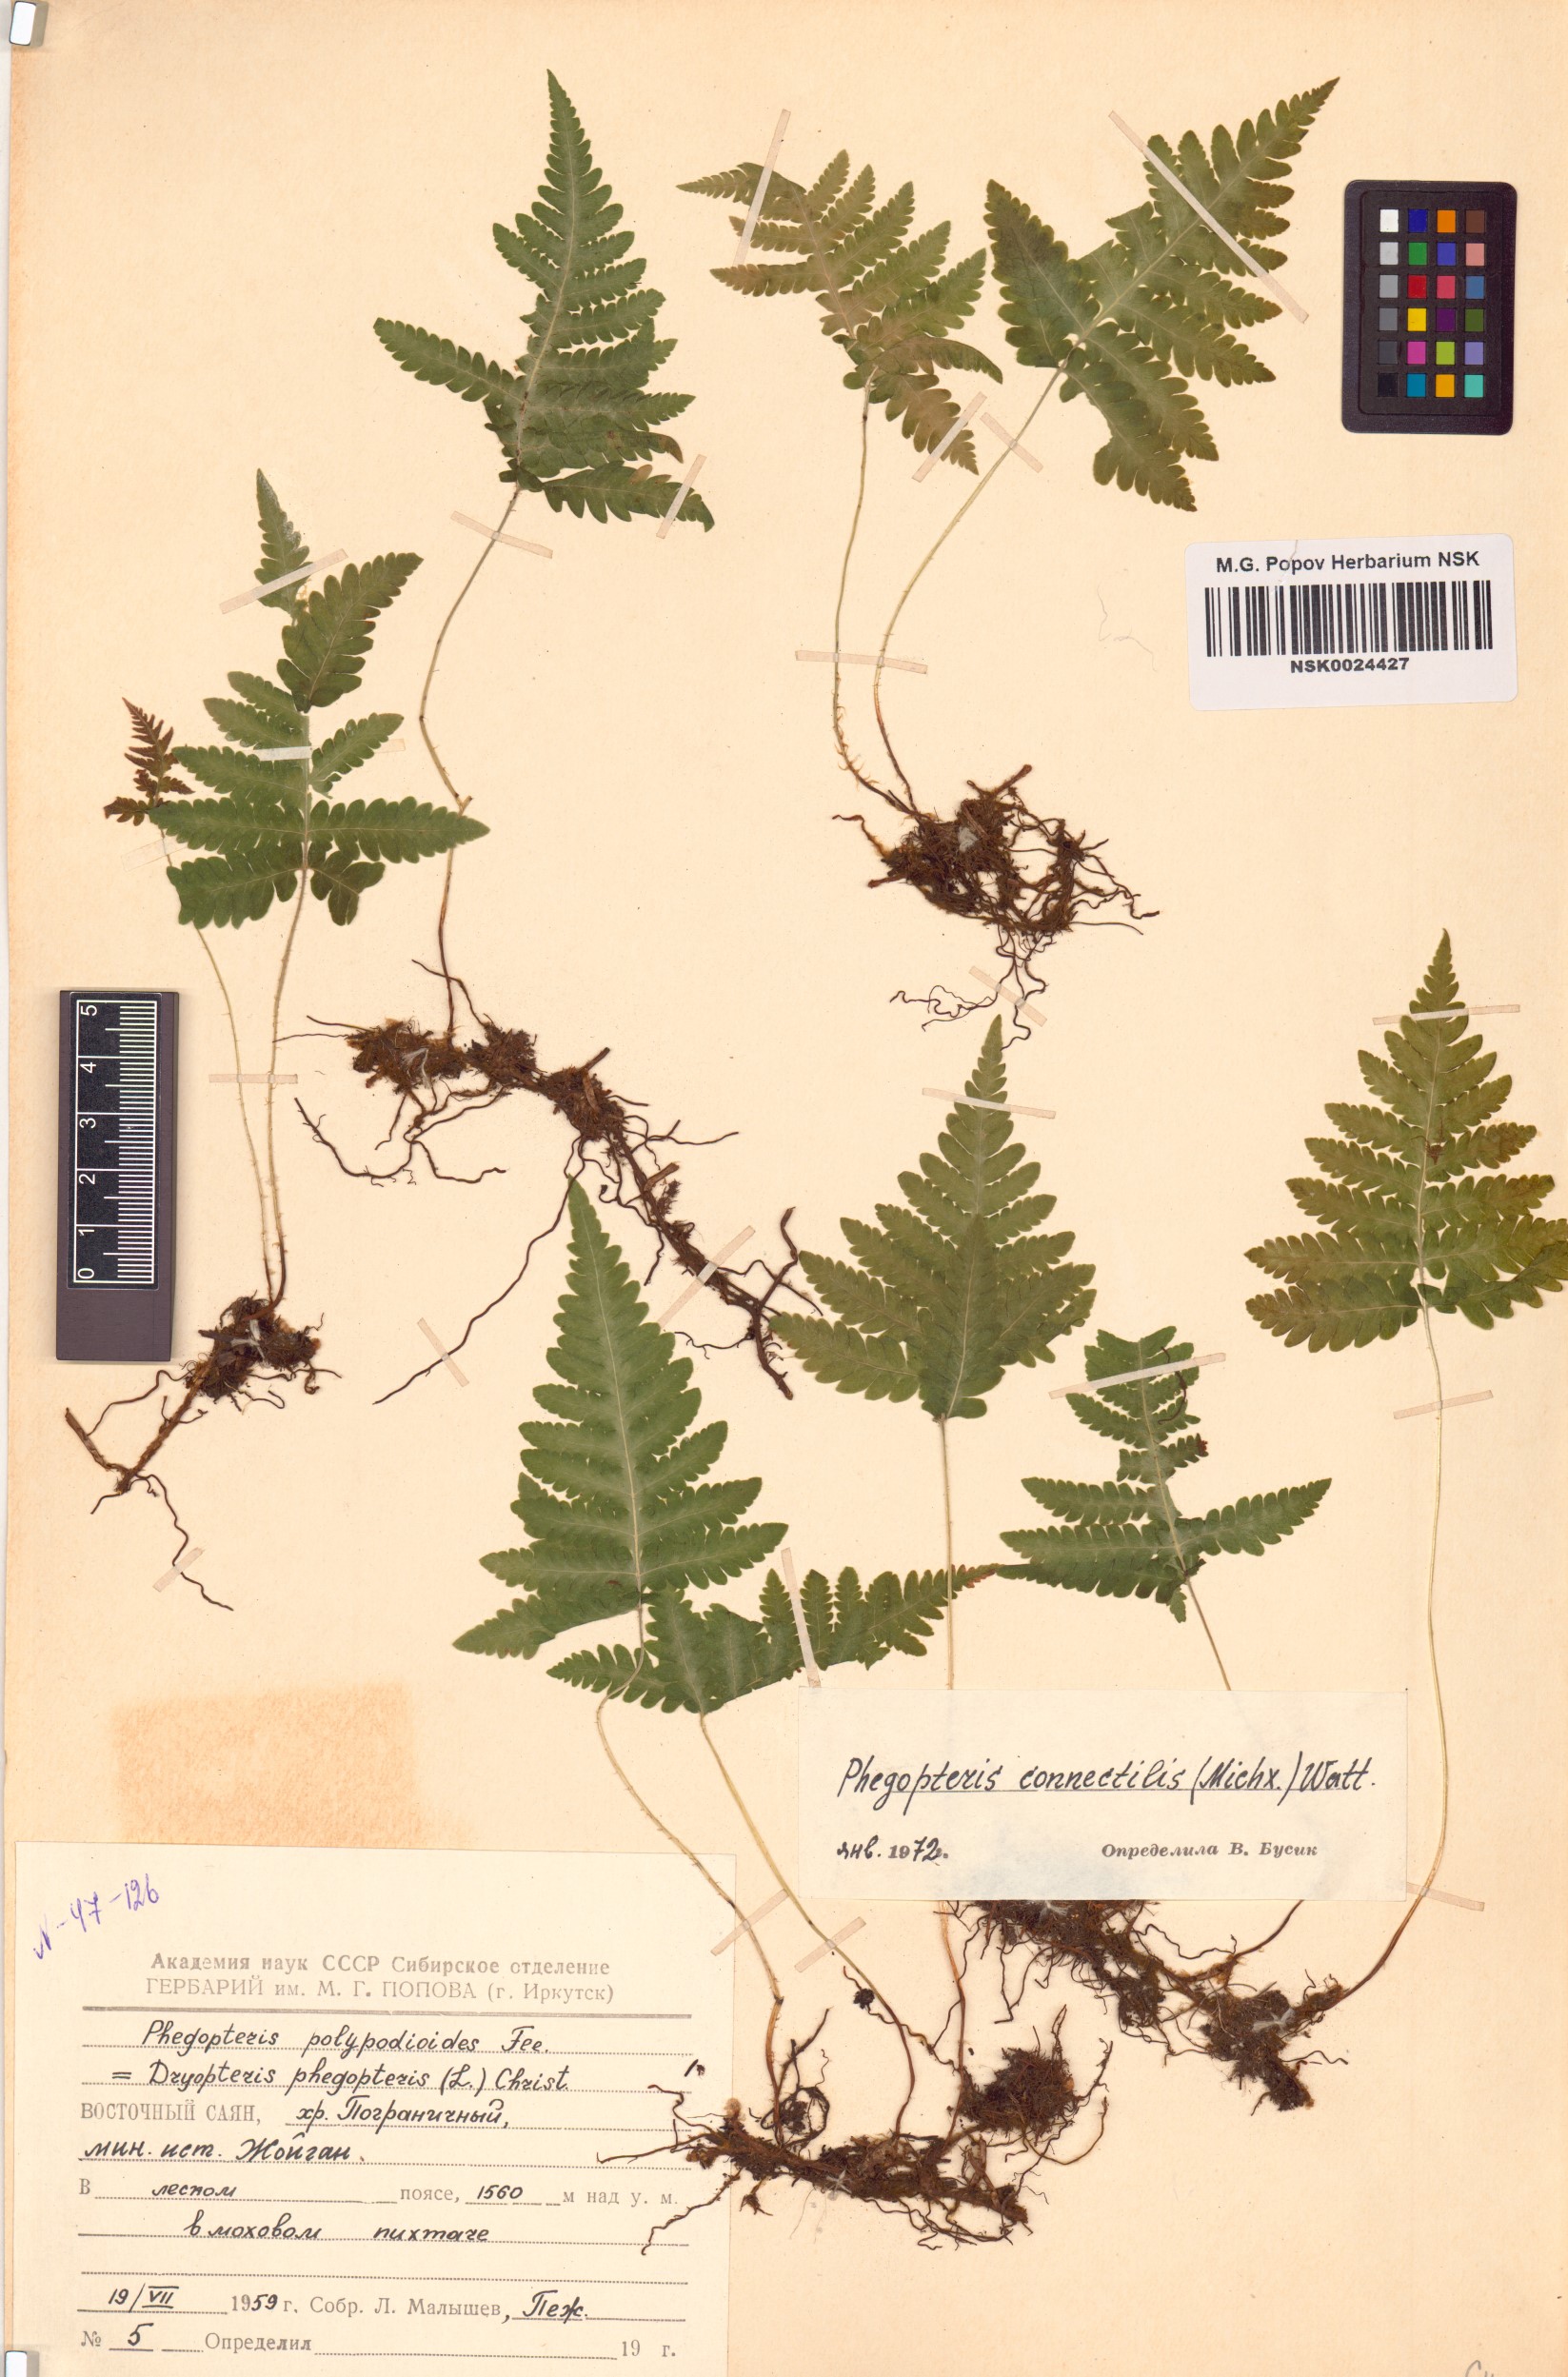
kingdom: Plantae
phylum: Tracheophyta
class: Polypodiopsida
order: Polypodiales
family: Thelypteridaceae
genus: Phegopteris
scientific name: Phegopteris connectilis
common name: Beech fern
